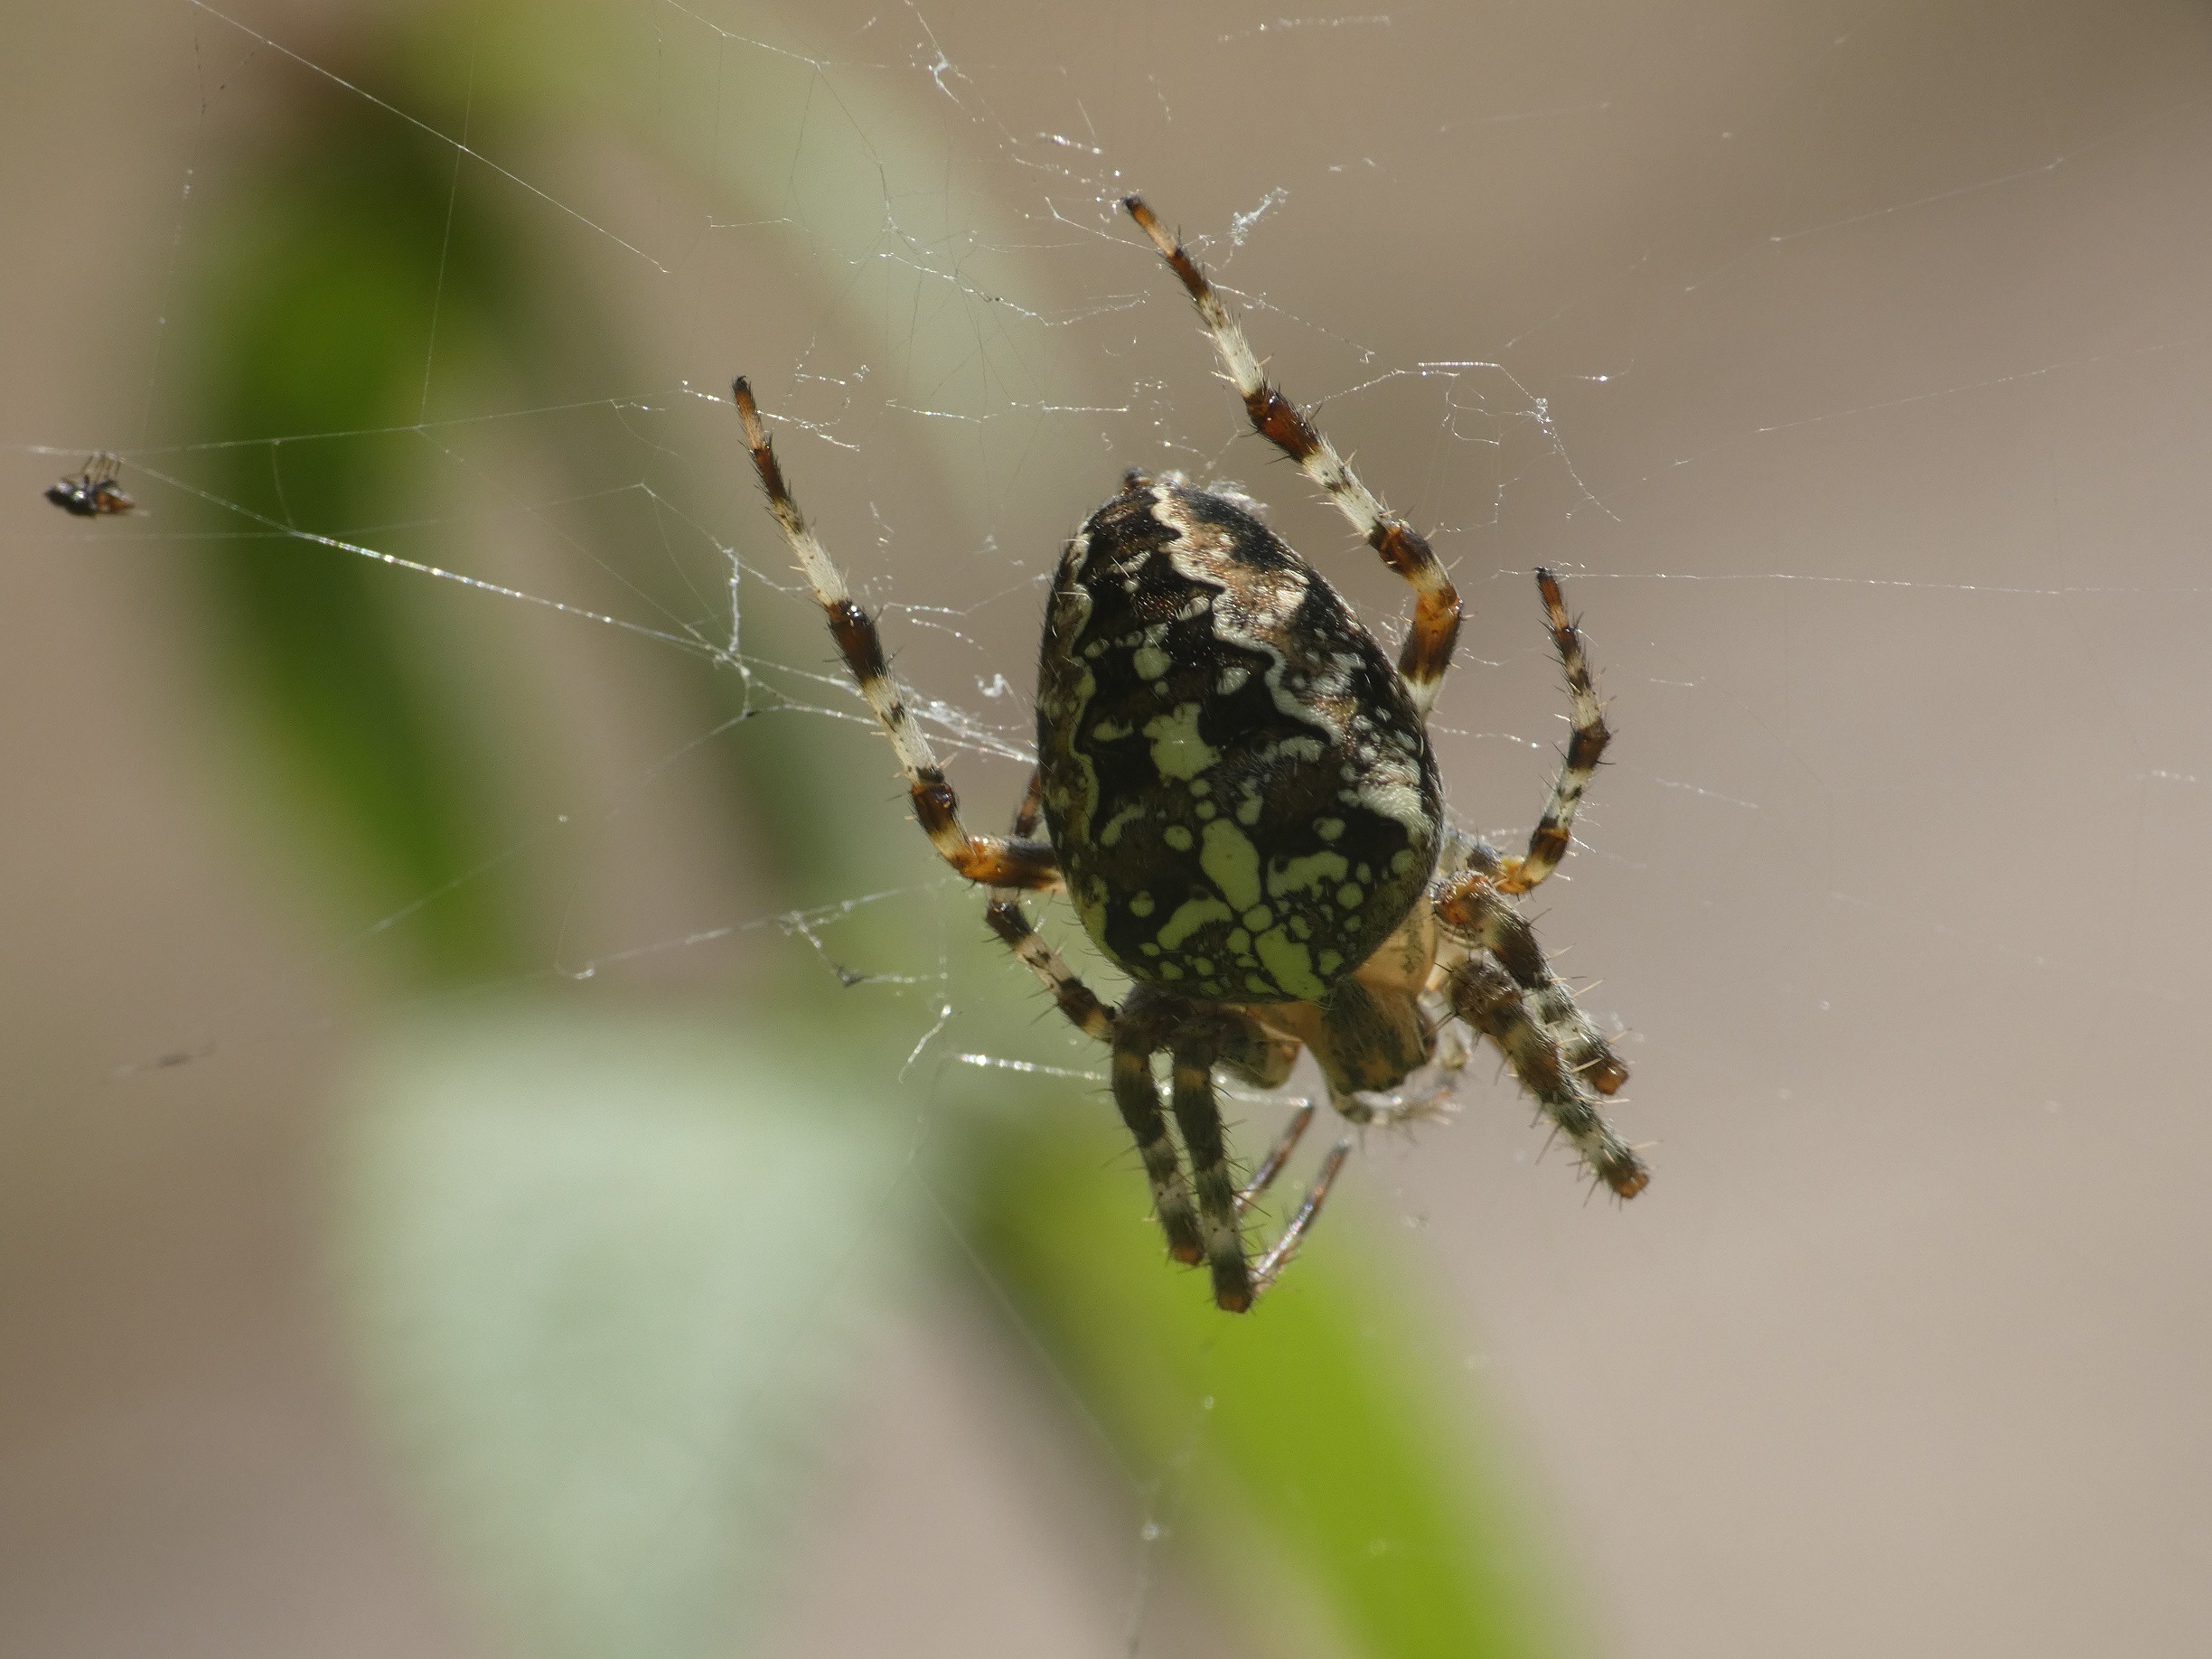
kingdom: Animalia
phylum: Arthropoda
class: Arachnida
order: Araneae
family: Araneidae
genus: Araneus
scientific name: Araneus diadematus
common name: Korsedderkop
